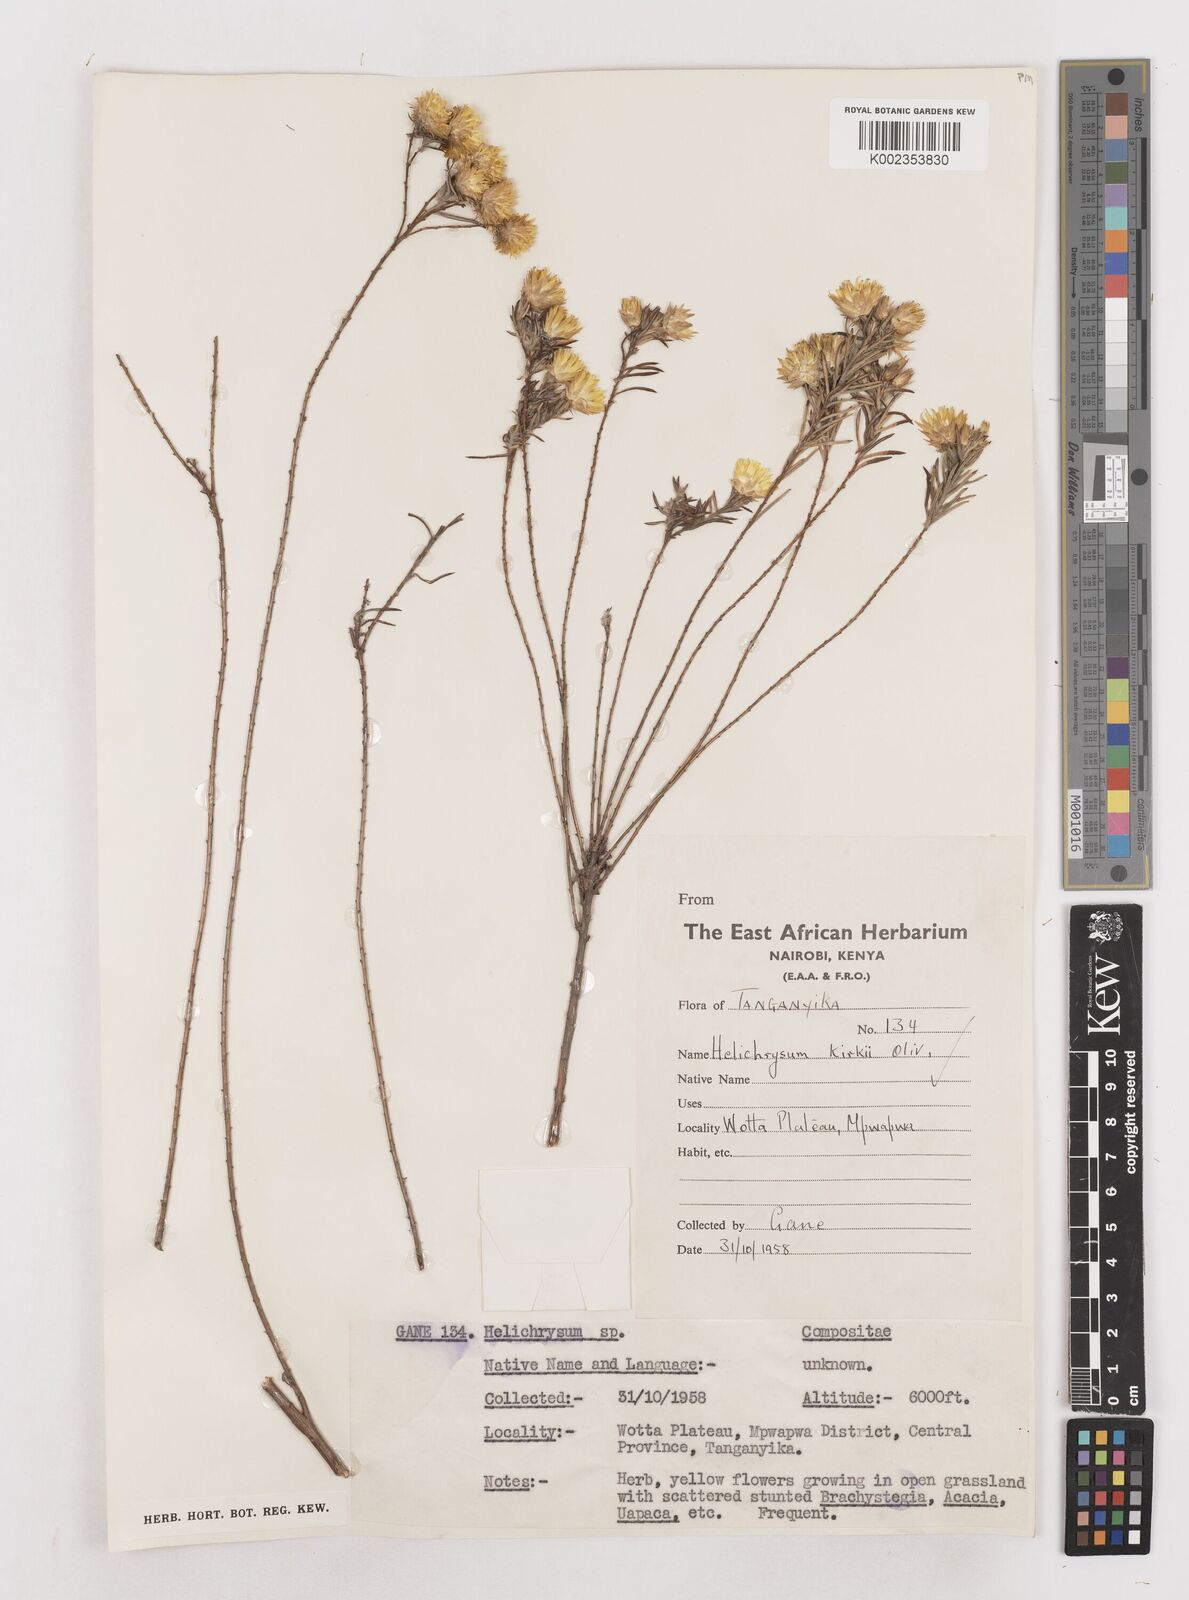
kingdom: Plantae
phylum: Tracheophyta
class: Magnoliopsida
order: Asterales
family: Asteraceae
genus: Helichrysum
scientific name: Helichrysum kirkii
